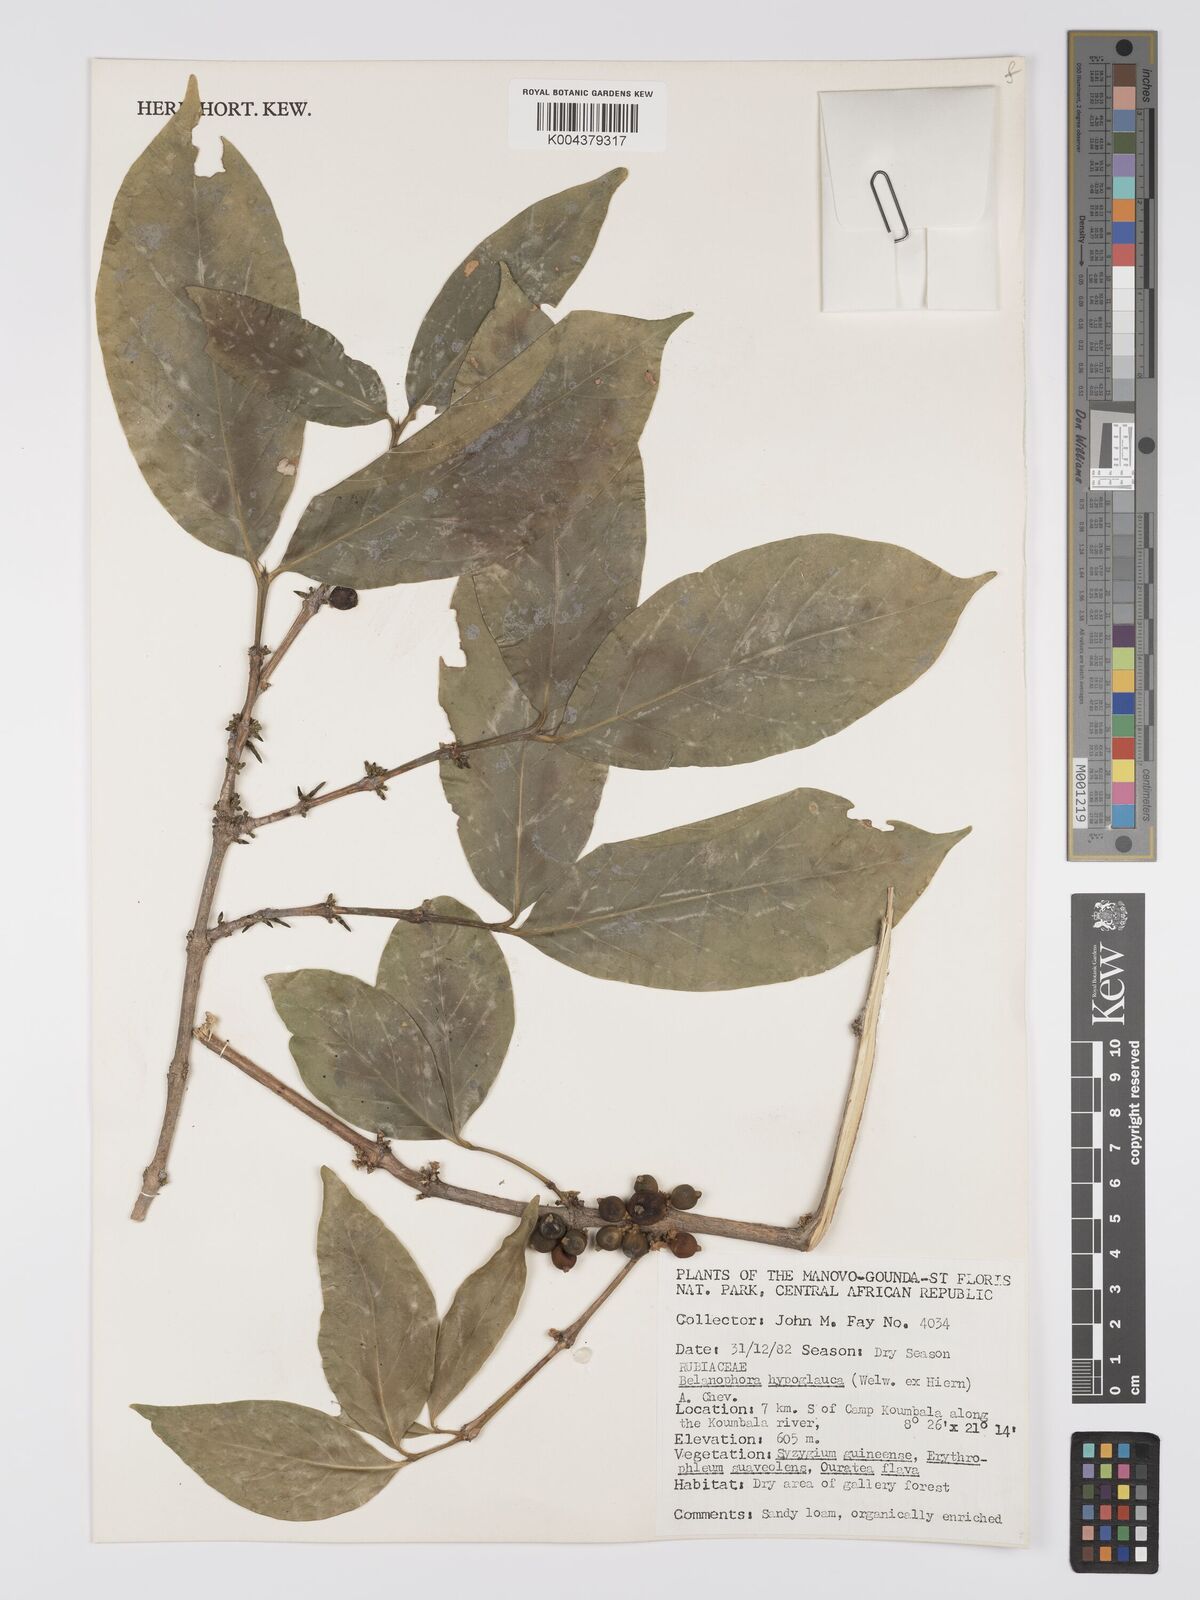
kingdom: Plantae
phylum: Tracheophyta
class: Magnoliopsida
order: Gentianales
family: Rubiaceae
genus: Belonophora
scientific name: Belonophora coffeoides
